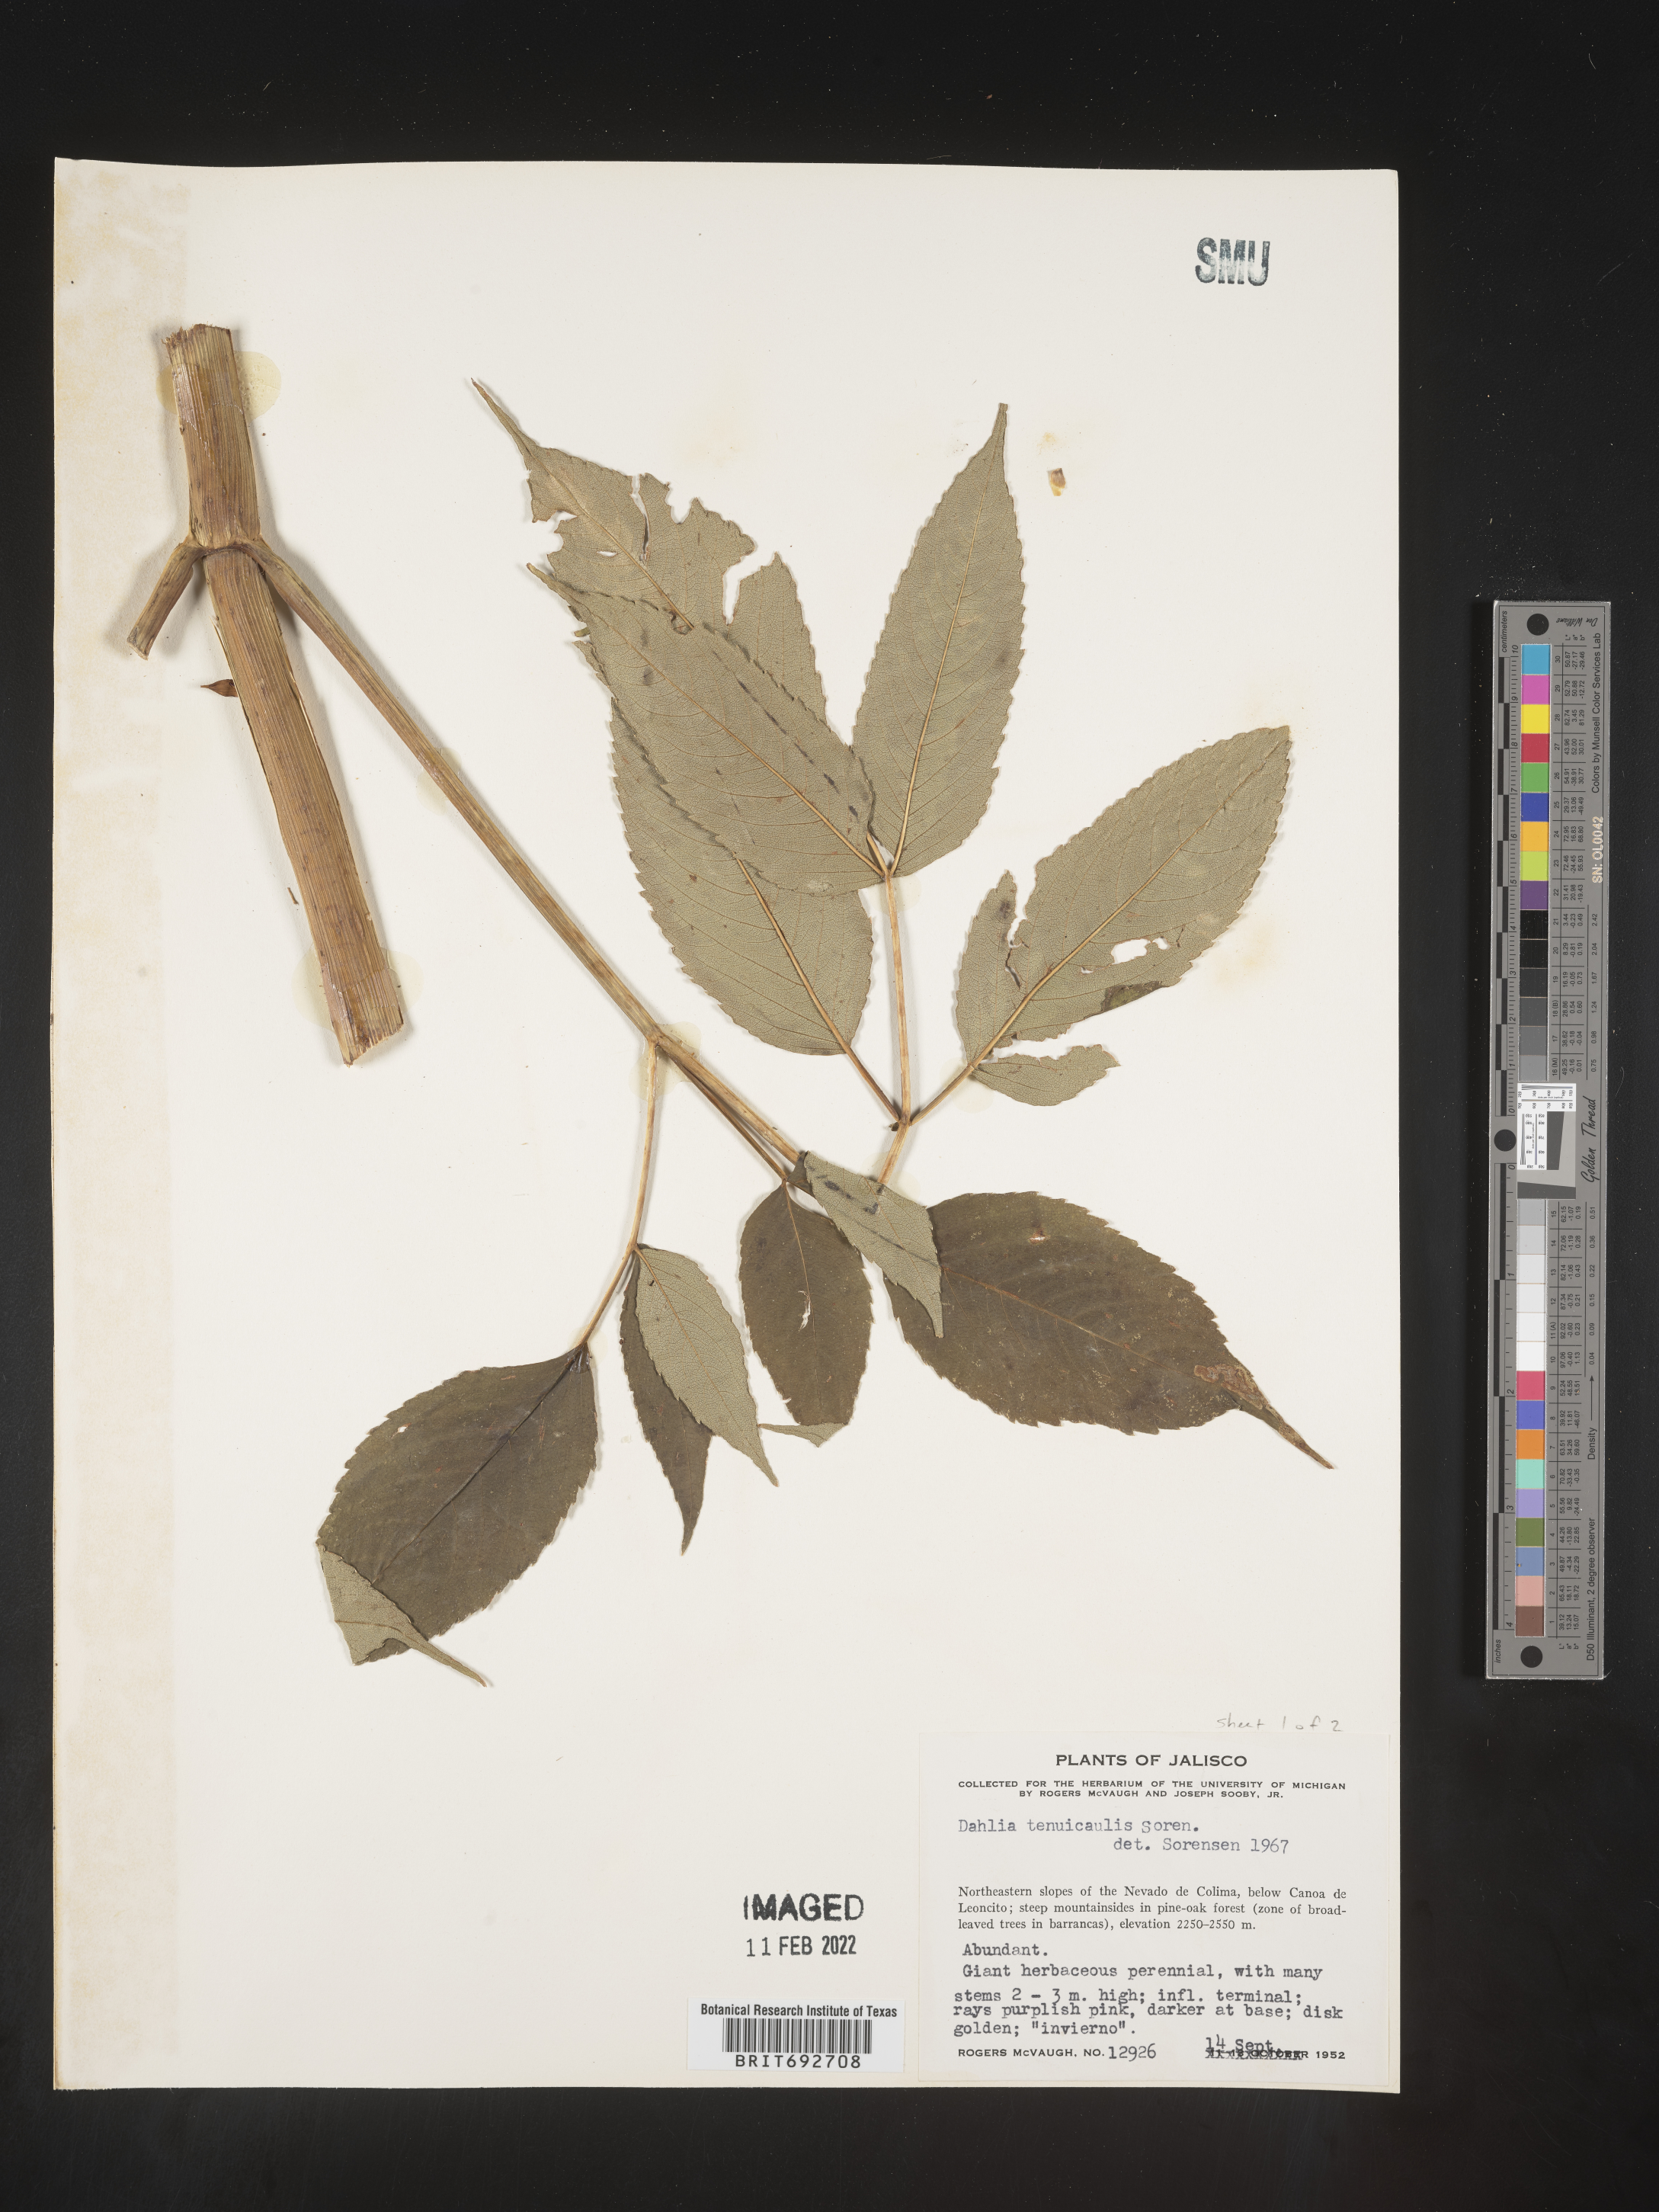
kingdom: Plantae
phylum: Tracheophyta
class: Magnoliopsida
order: Asterales
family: Asteraceae
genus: Dahlia
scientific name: Dahlia
